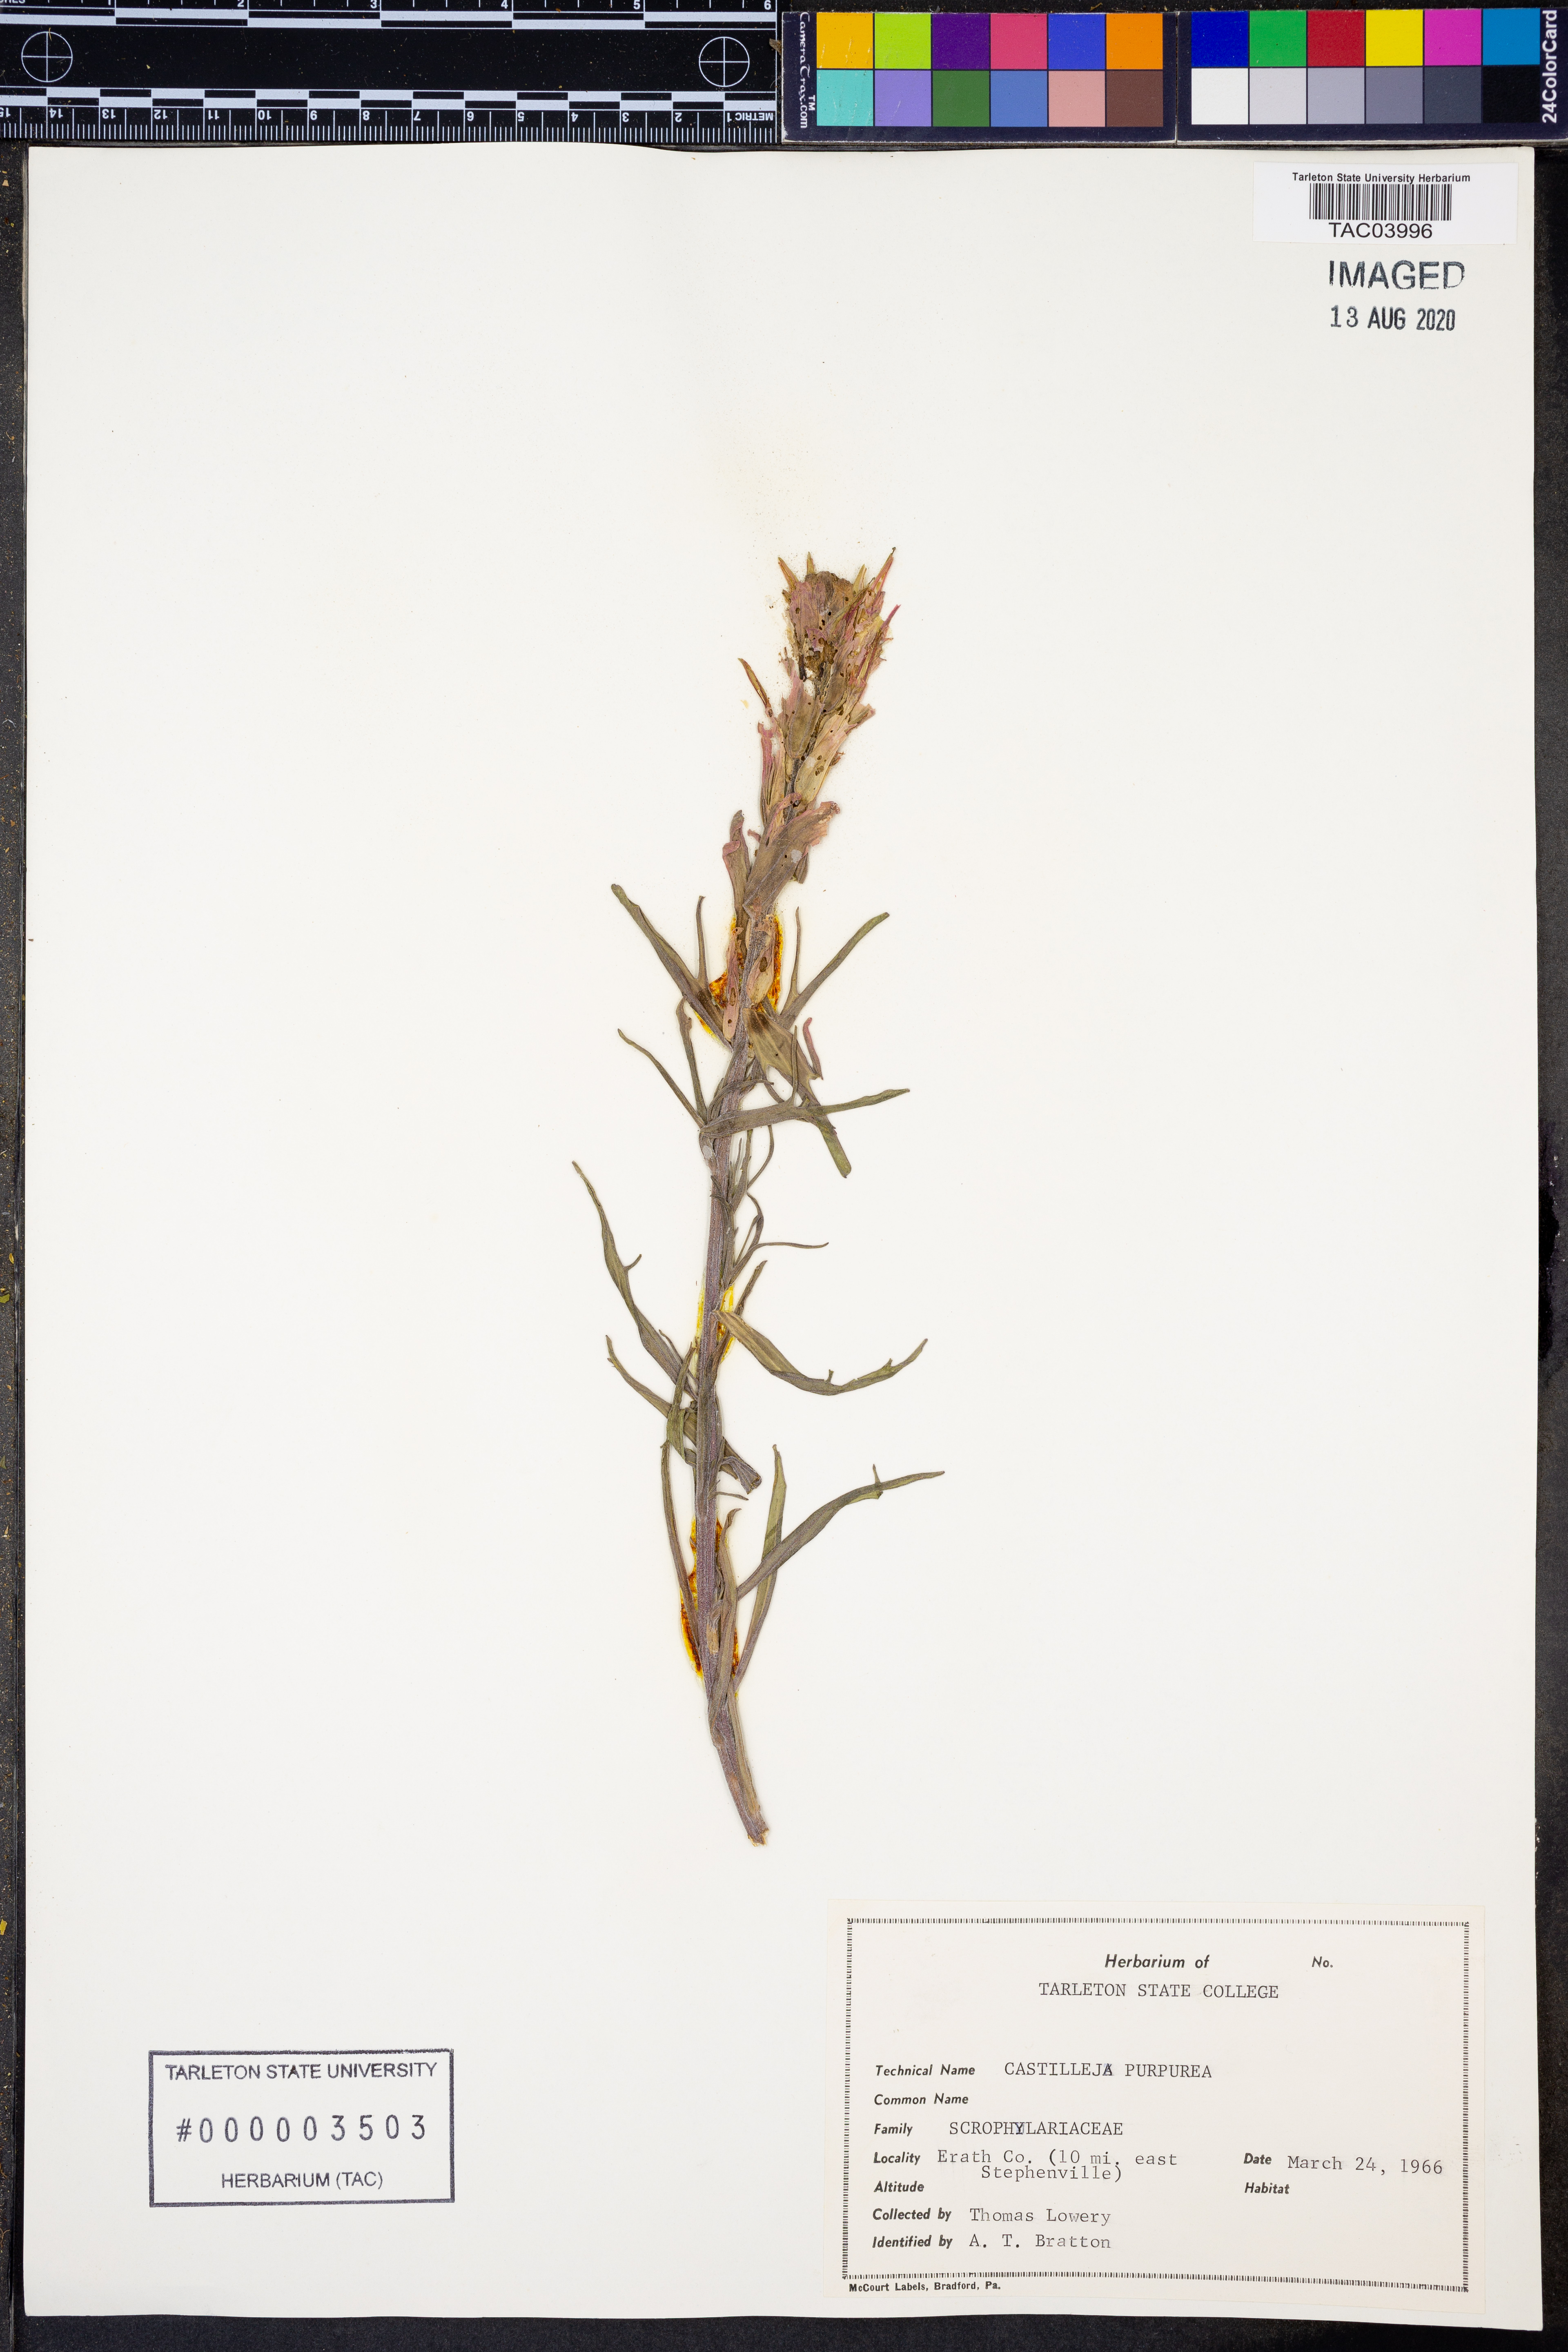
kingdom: Plantae
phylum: Tracheophyta
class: Magnoliopsida
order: Lamiales
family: Orobanchaceae
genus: Castilleja
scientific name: Castilleja purpurea
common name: Plains paintbrush
